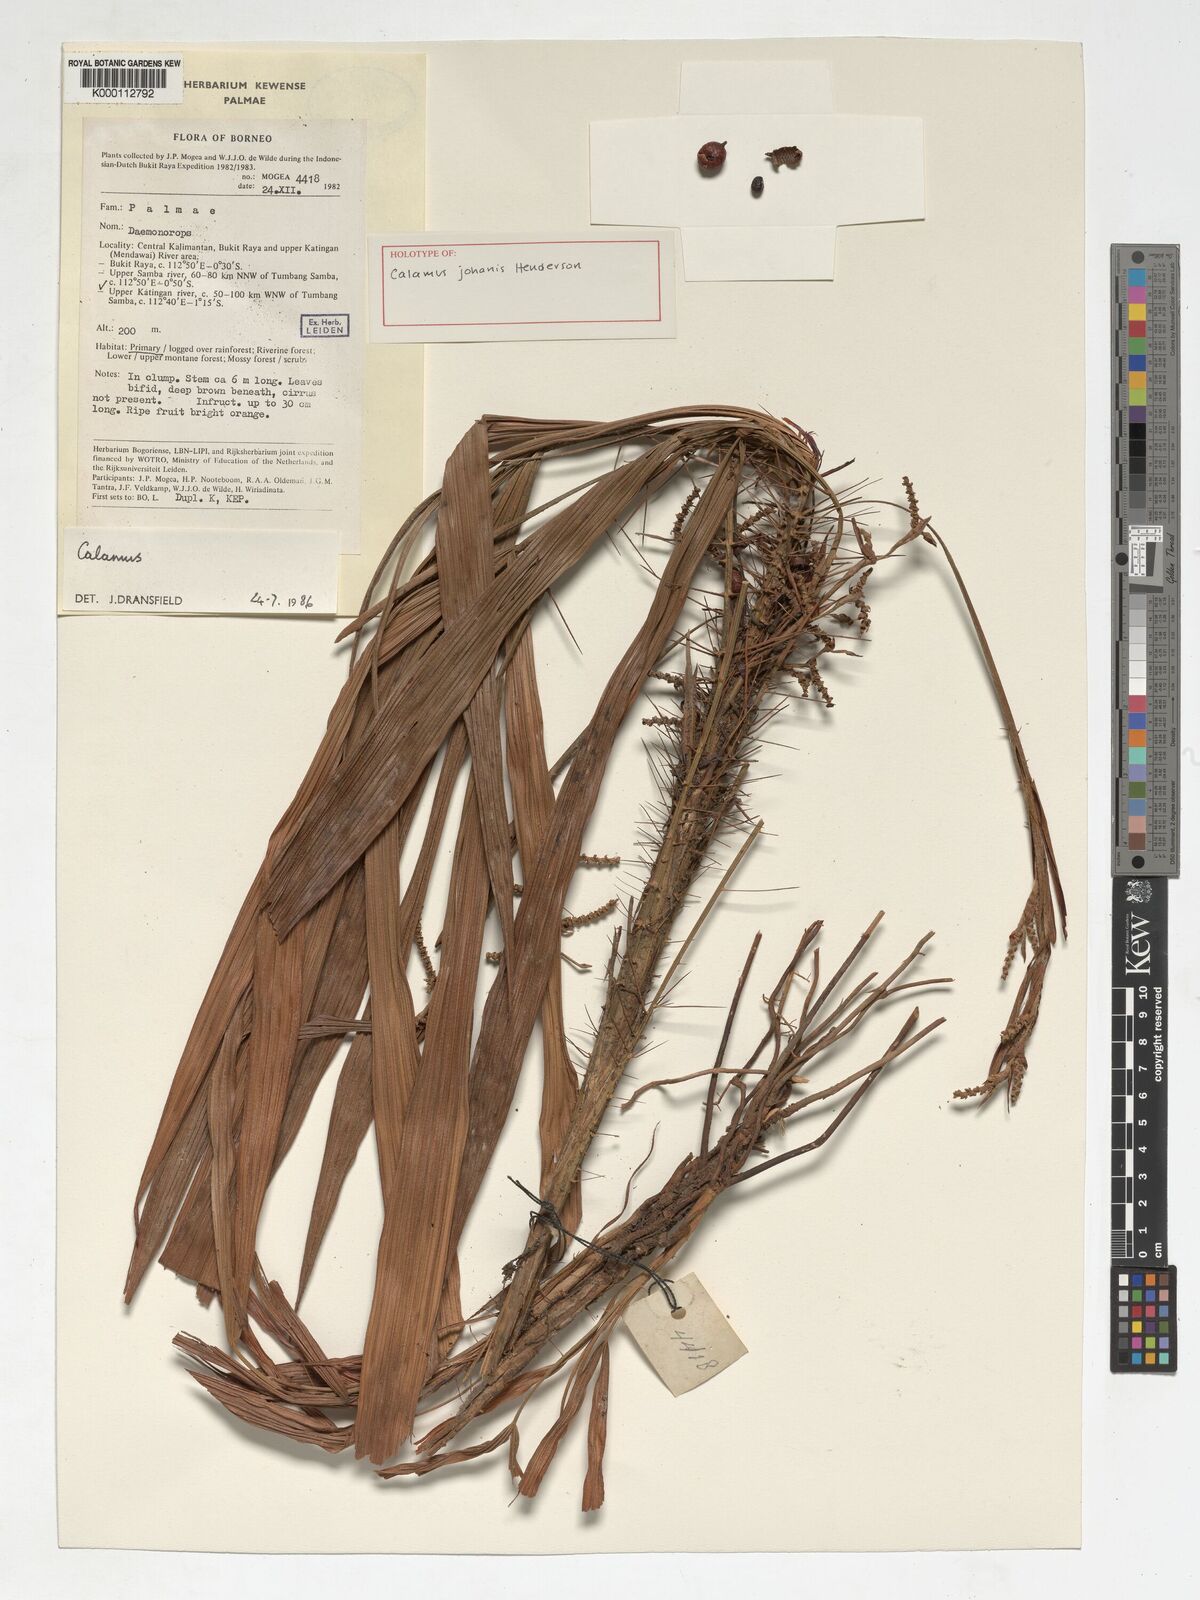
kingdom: Plantae
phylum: Tracheophyta
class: Liliopsida
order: Arecales
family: Arecaceae
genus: Calamus
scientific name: Calamus
